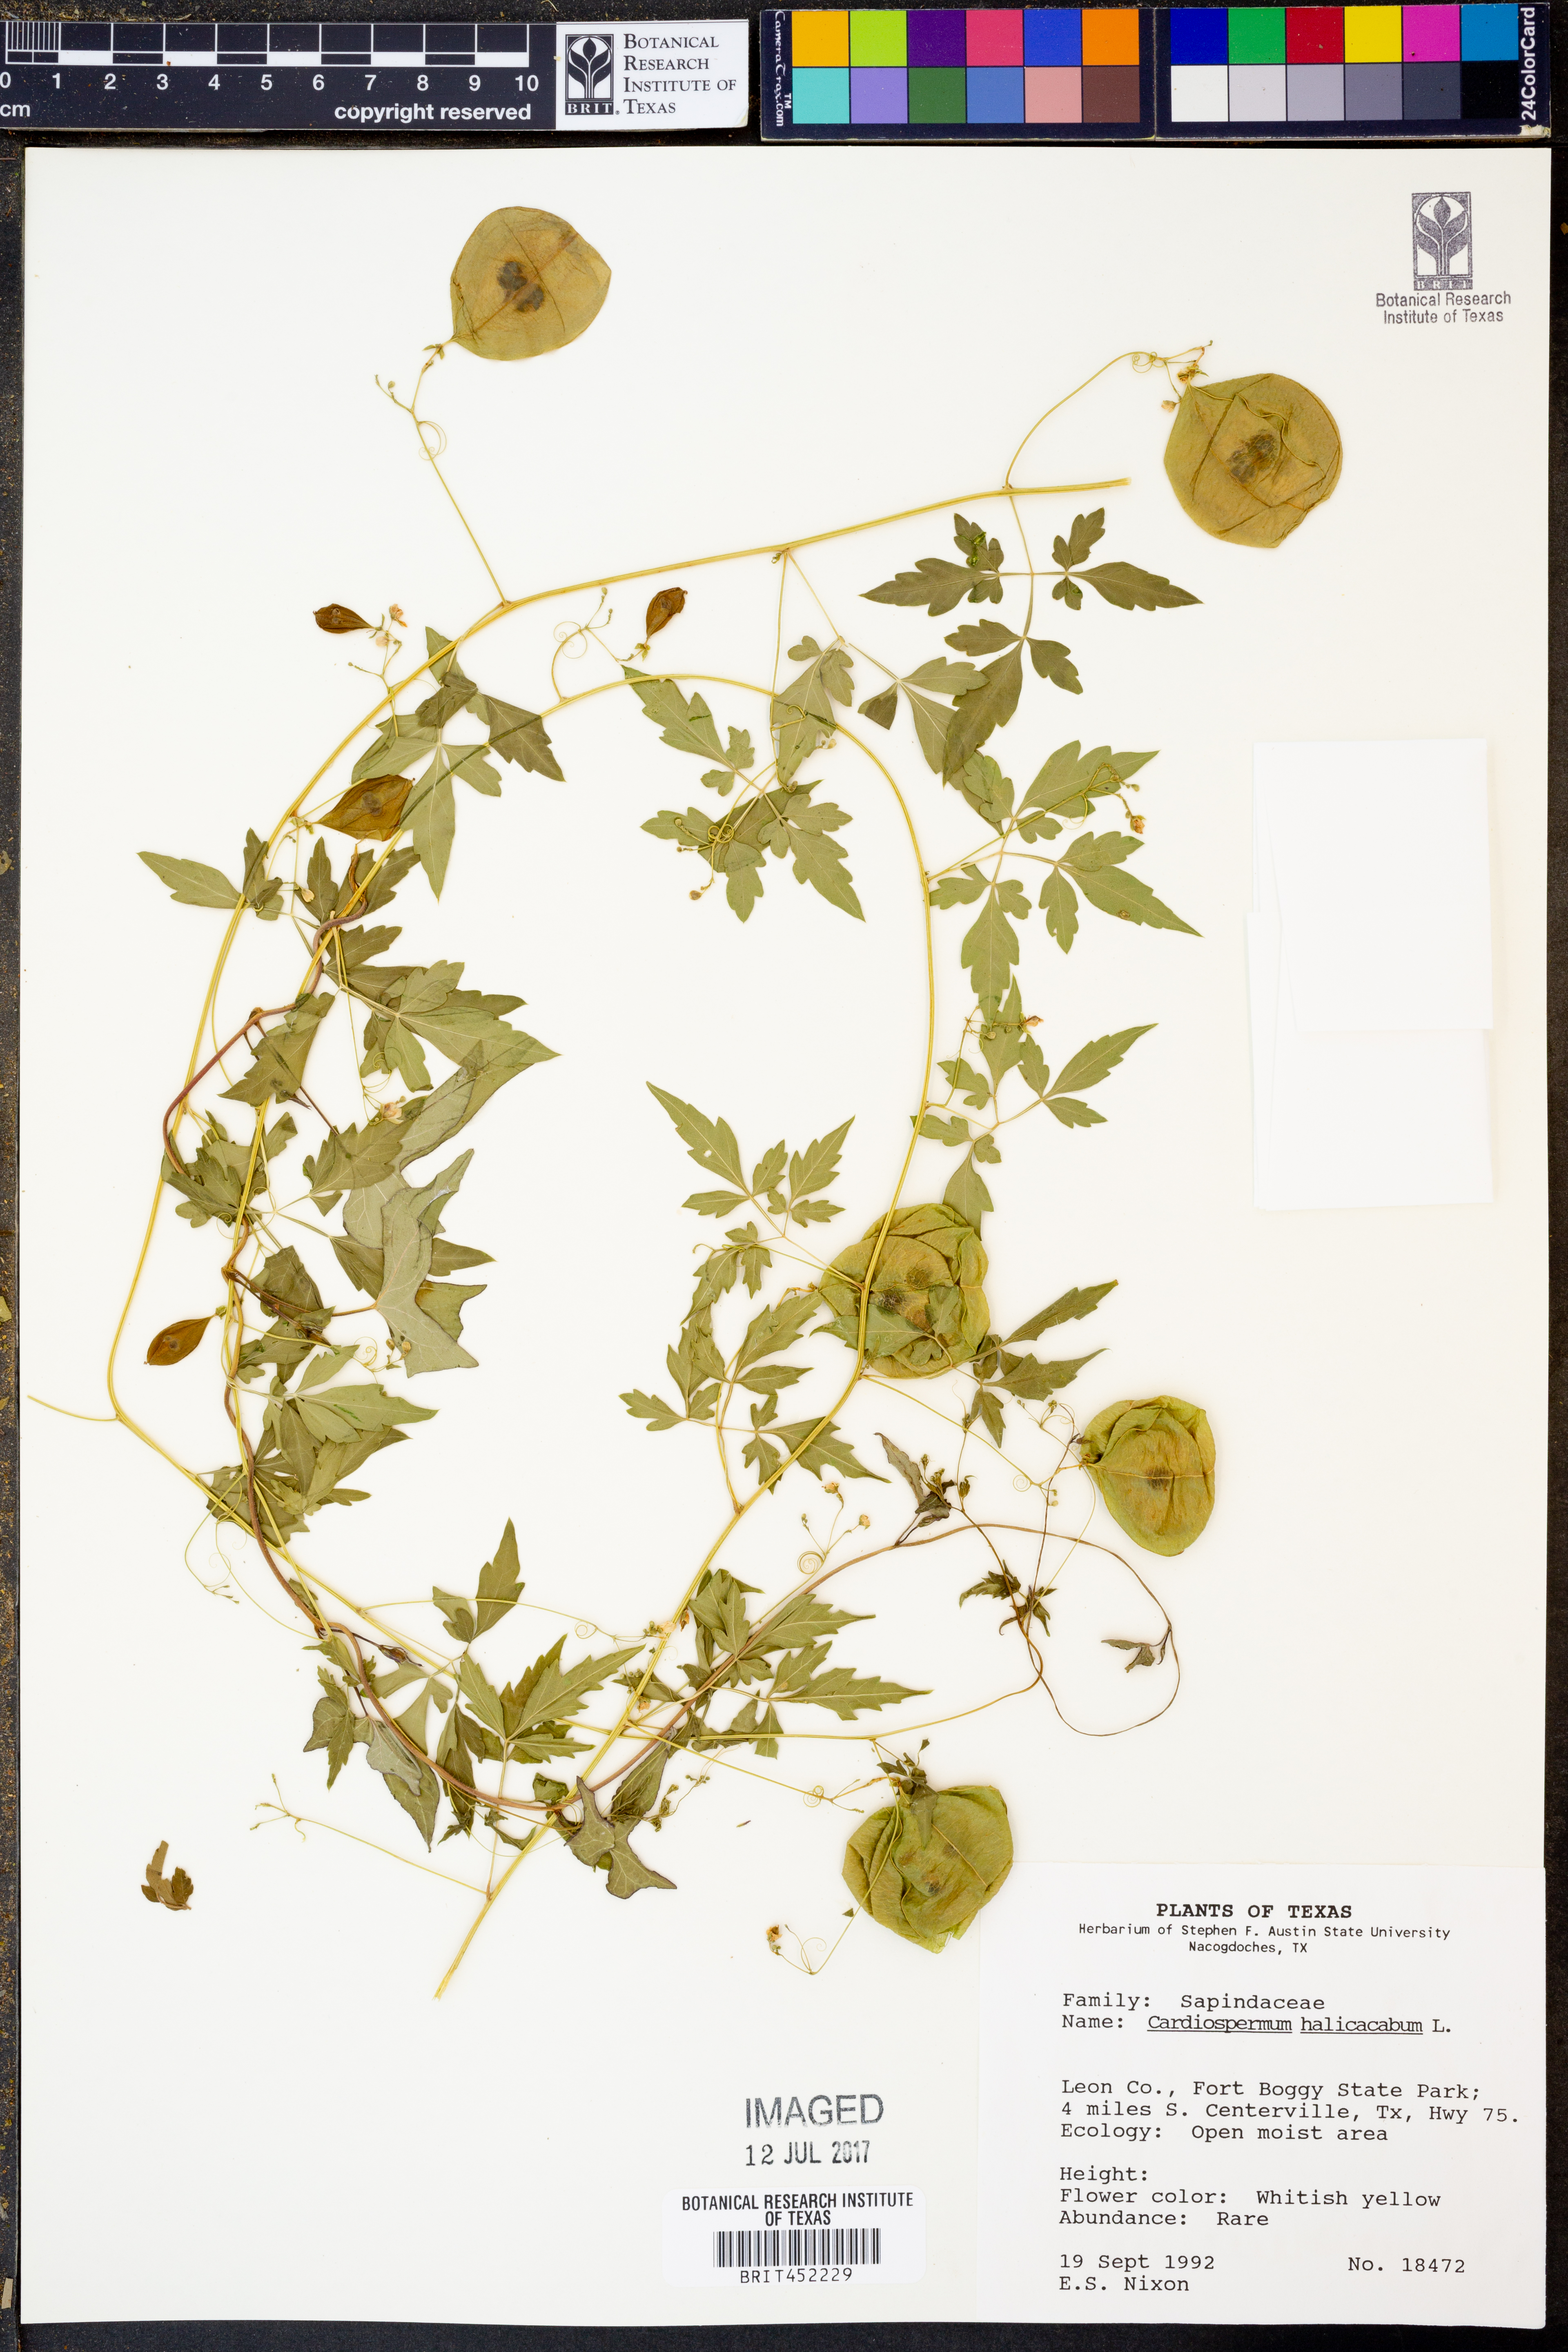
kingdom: Plantae
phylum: Tracheophyta
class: Magnoliopsida
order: Sapindales
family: Sapindaceae
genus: Cardiospermum
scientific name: Cardiospermum halicacabum
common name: Balloon vine
